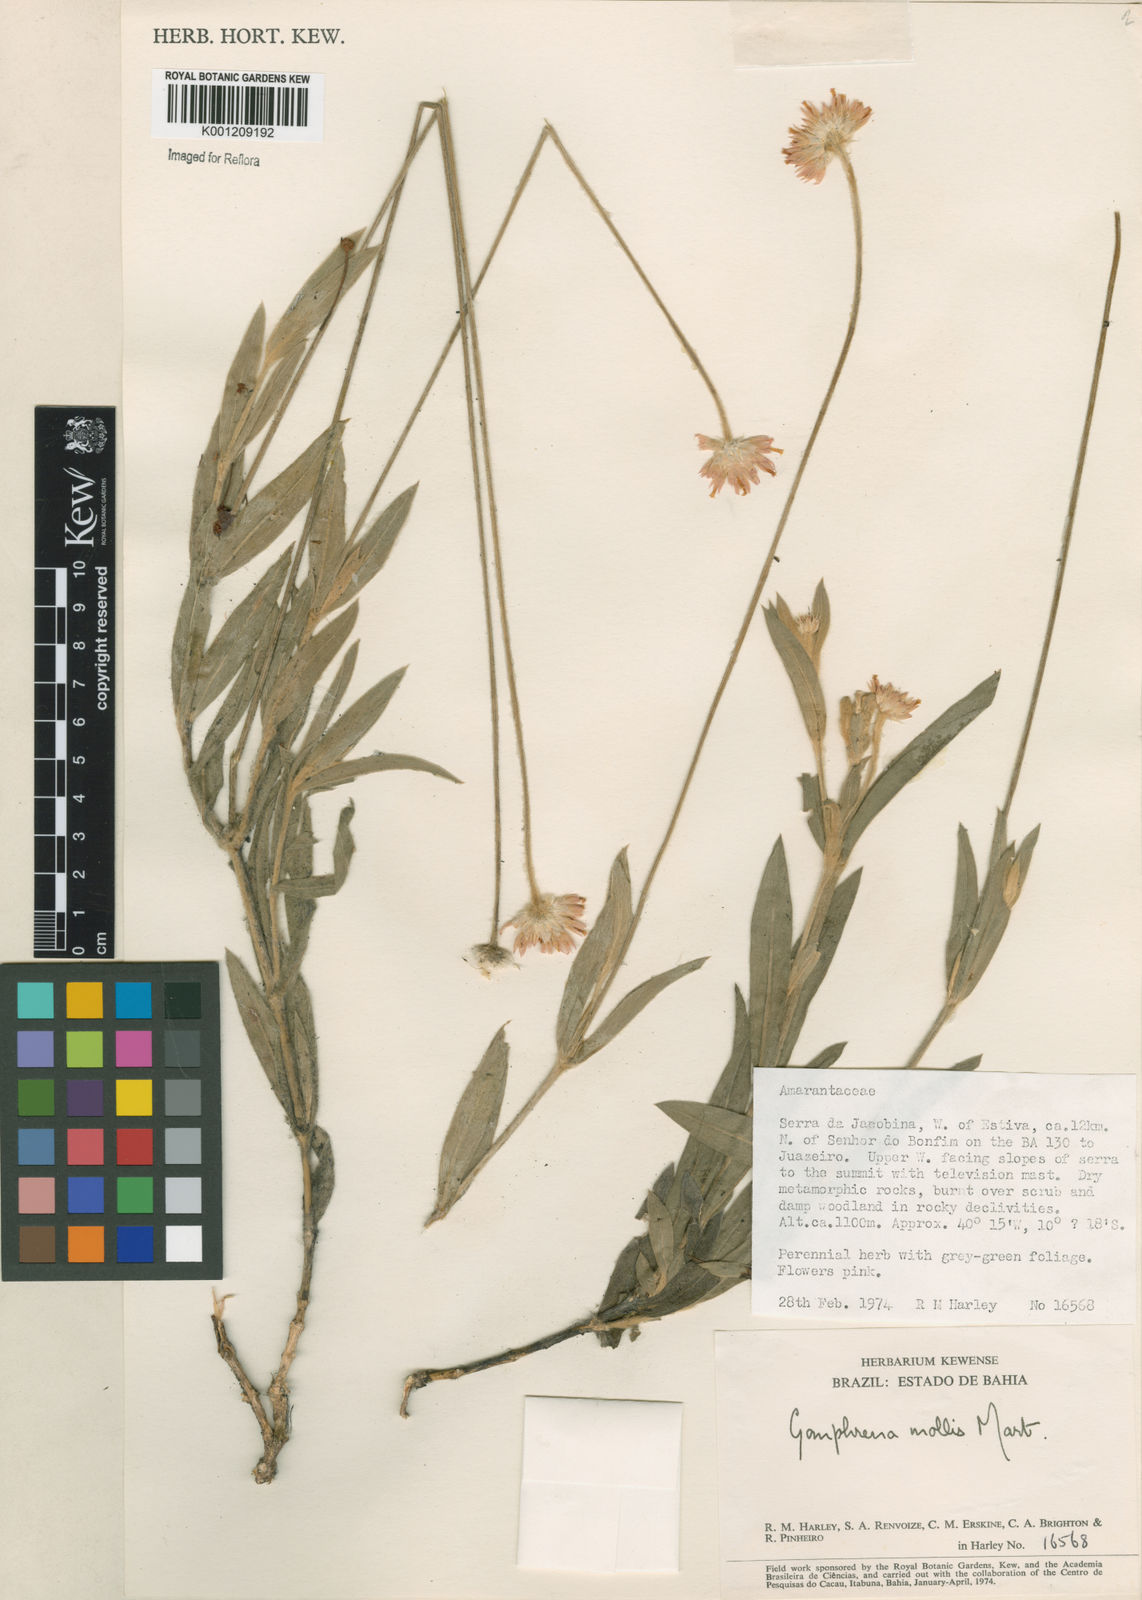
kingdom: Plantae
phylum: Tracheophyta
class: Magnoliopsida
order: Caryophyllales
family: Amaranthaceae
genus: Gomphrena
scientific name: Gomphrena mollis
